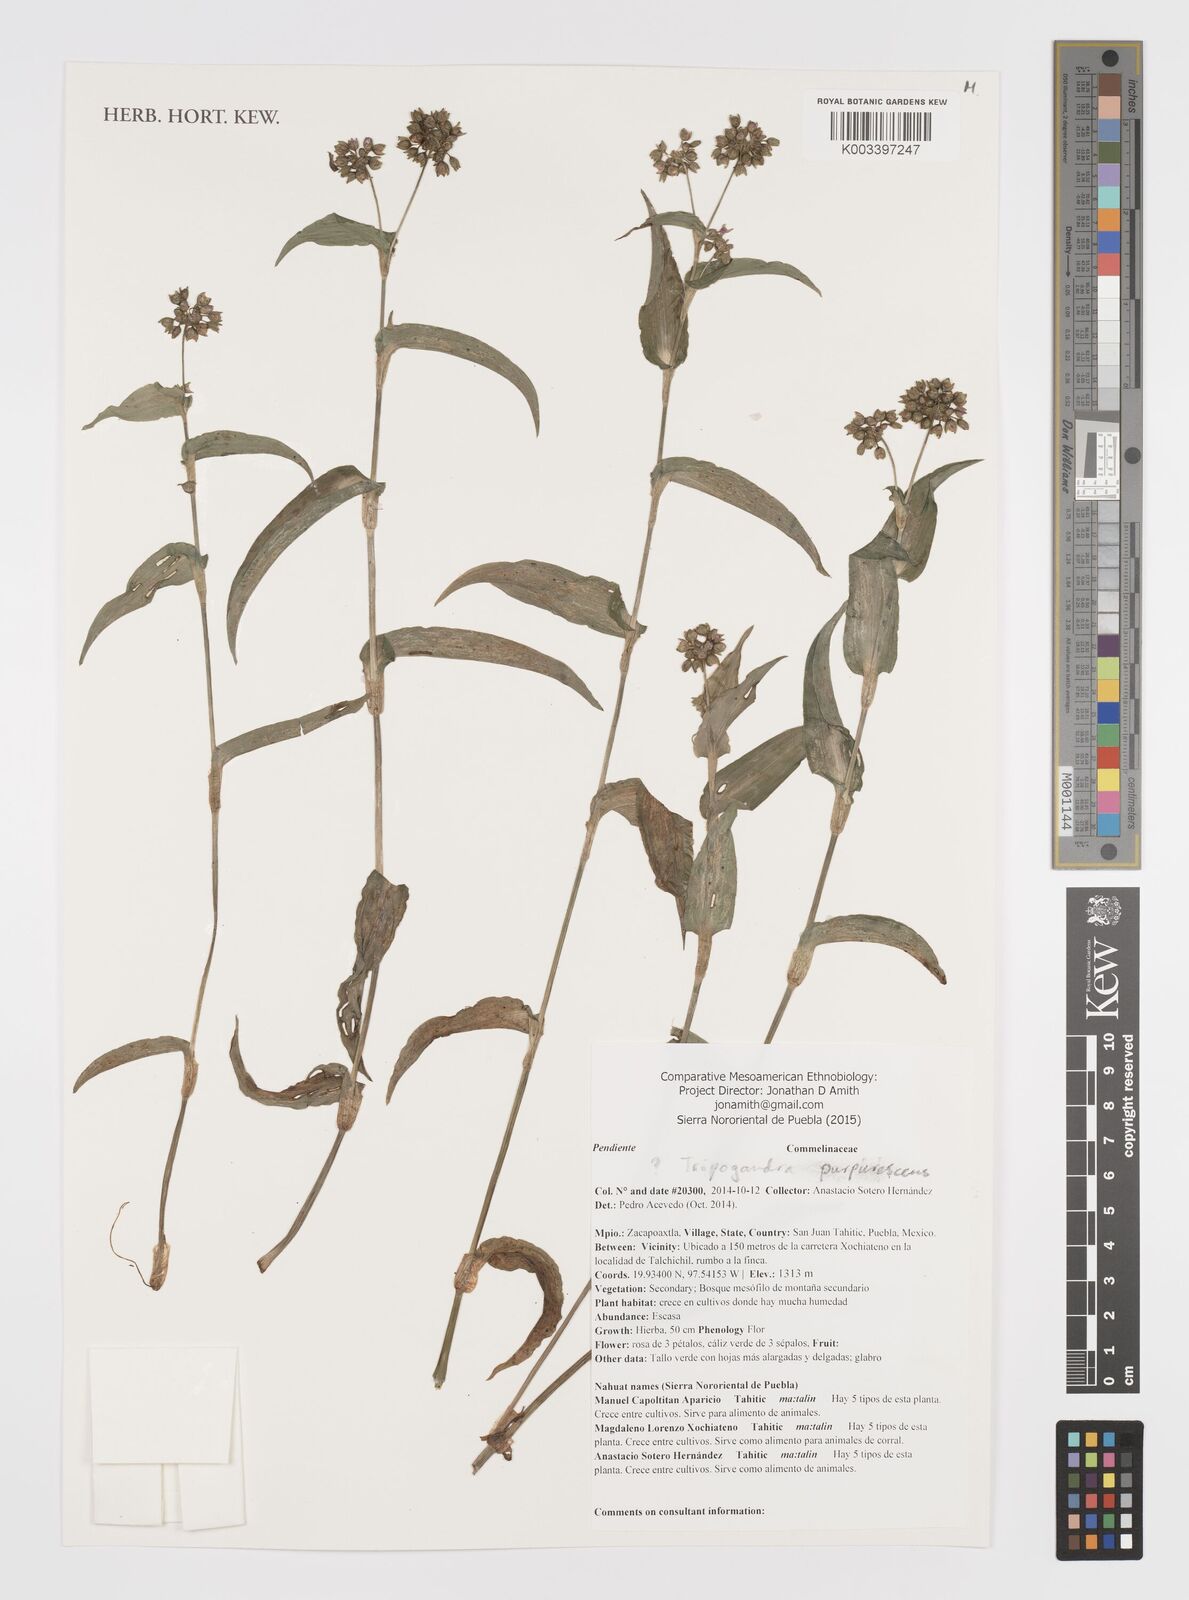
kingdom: Plantae
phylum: Tracheophyta
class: Liliopsida
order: Commelinales
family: Commelinaceae
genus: Callisia
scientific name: Callisia purpurascens
